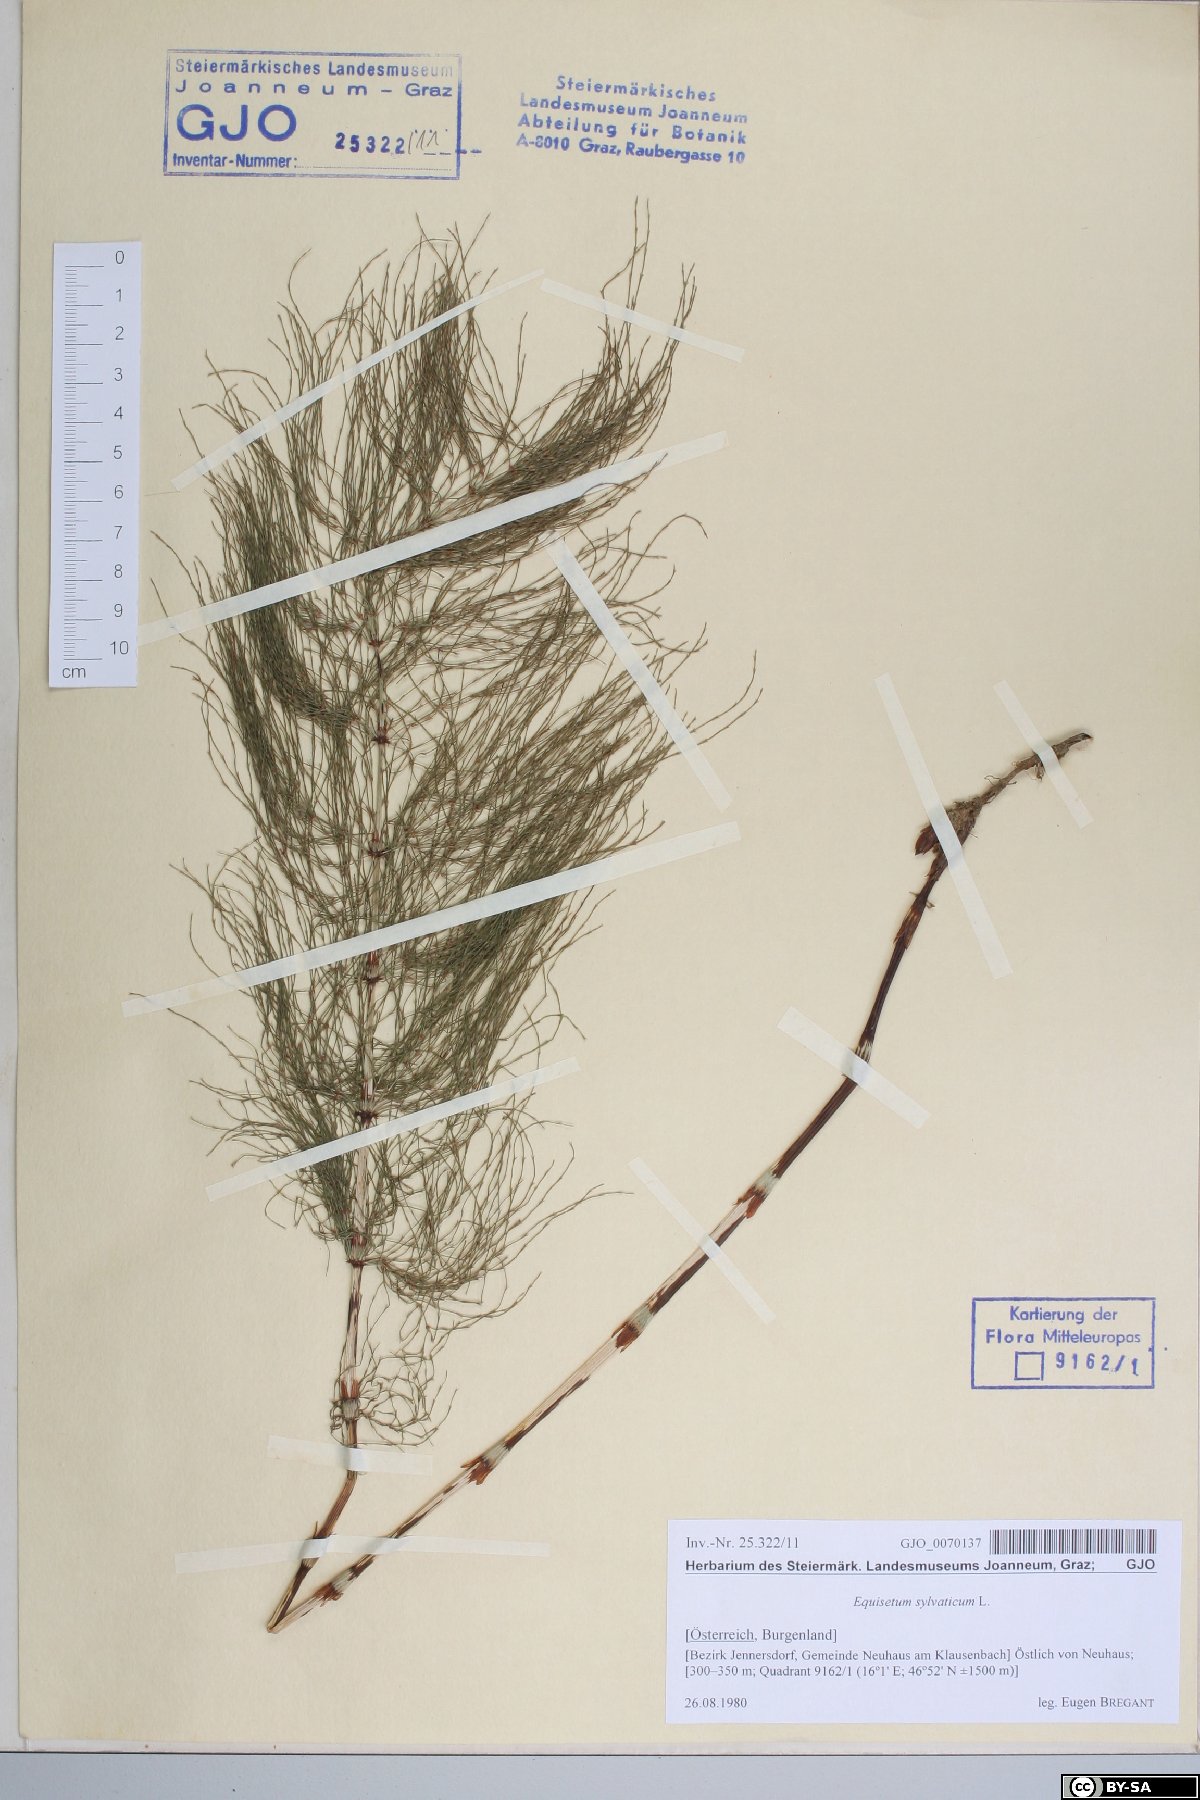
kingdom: Plantae
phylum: Tracheophyta
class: Polypodiopsida
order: Equisetales
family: Equisetaceae
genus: Equisetum
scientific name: Equisetum sylvaticum
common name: Wood horsetail
